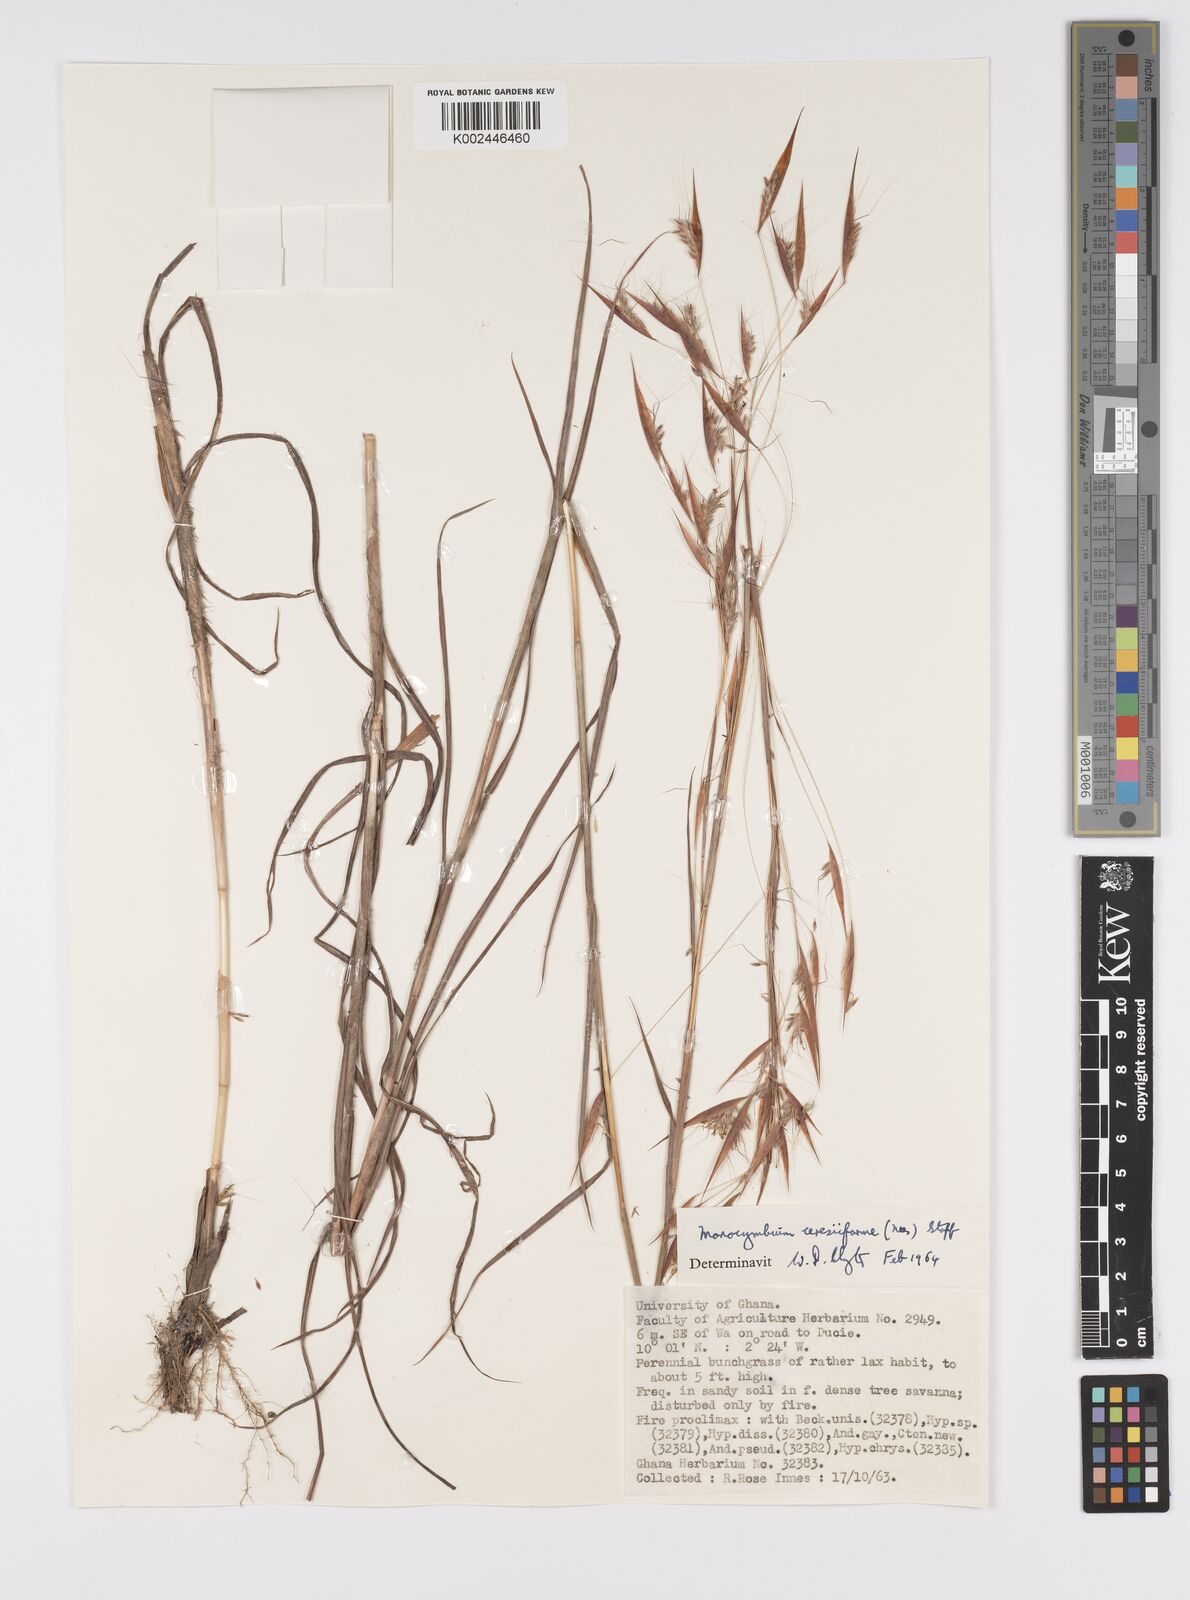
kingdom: Plantae
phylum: Tracheophyta
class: Liliopsida
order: Poales
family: Poaceae
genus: Monocymbium
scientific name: Monocymbium ceresiiforme
